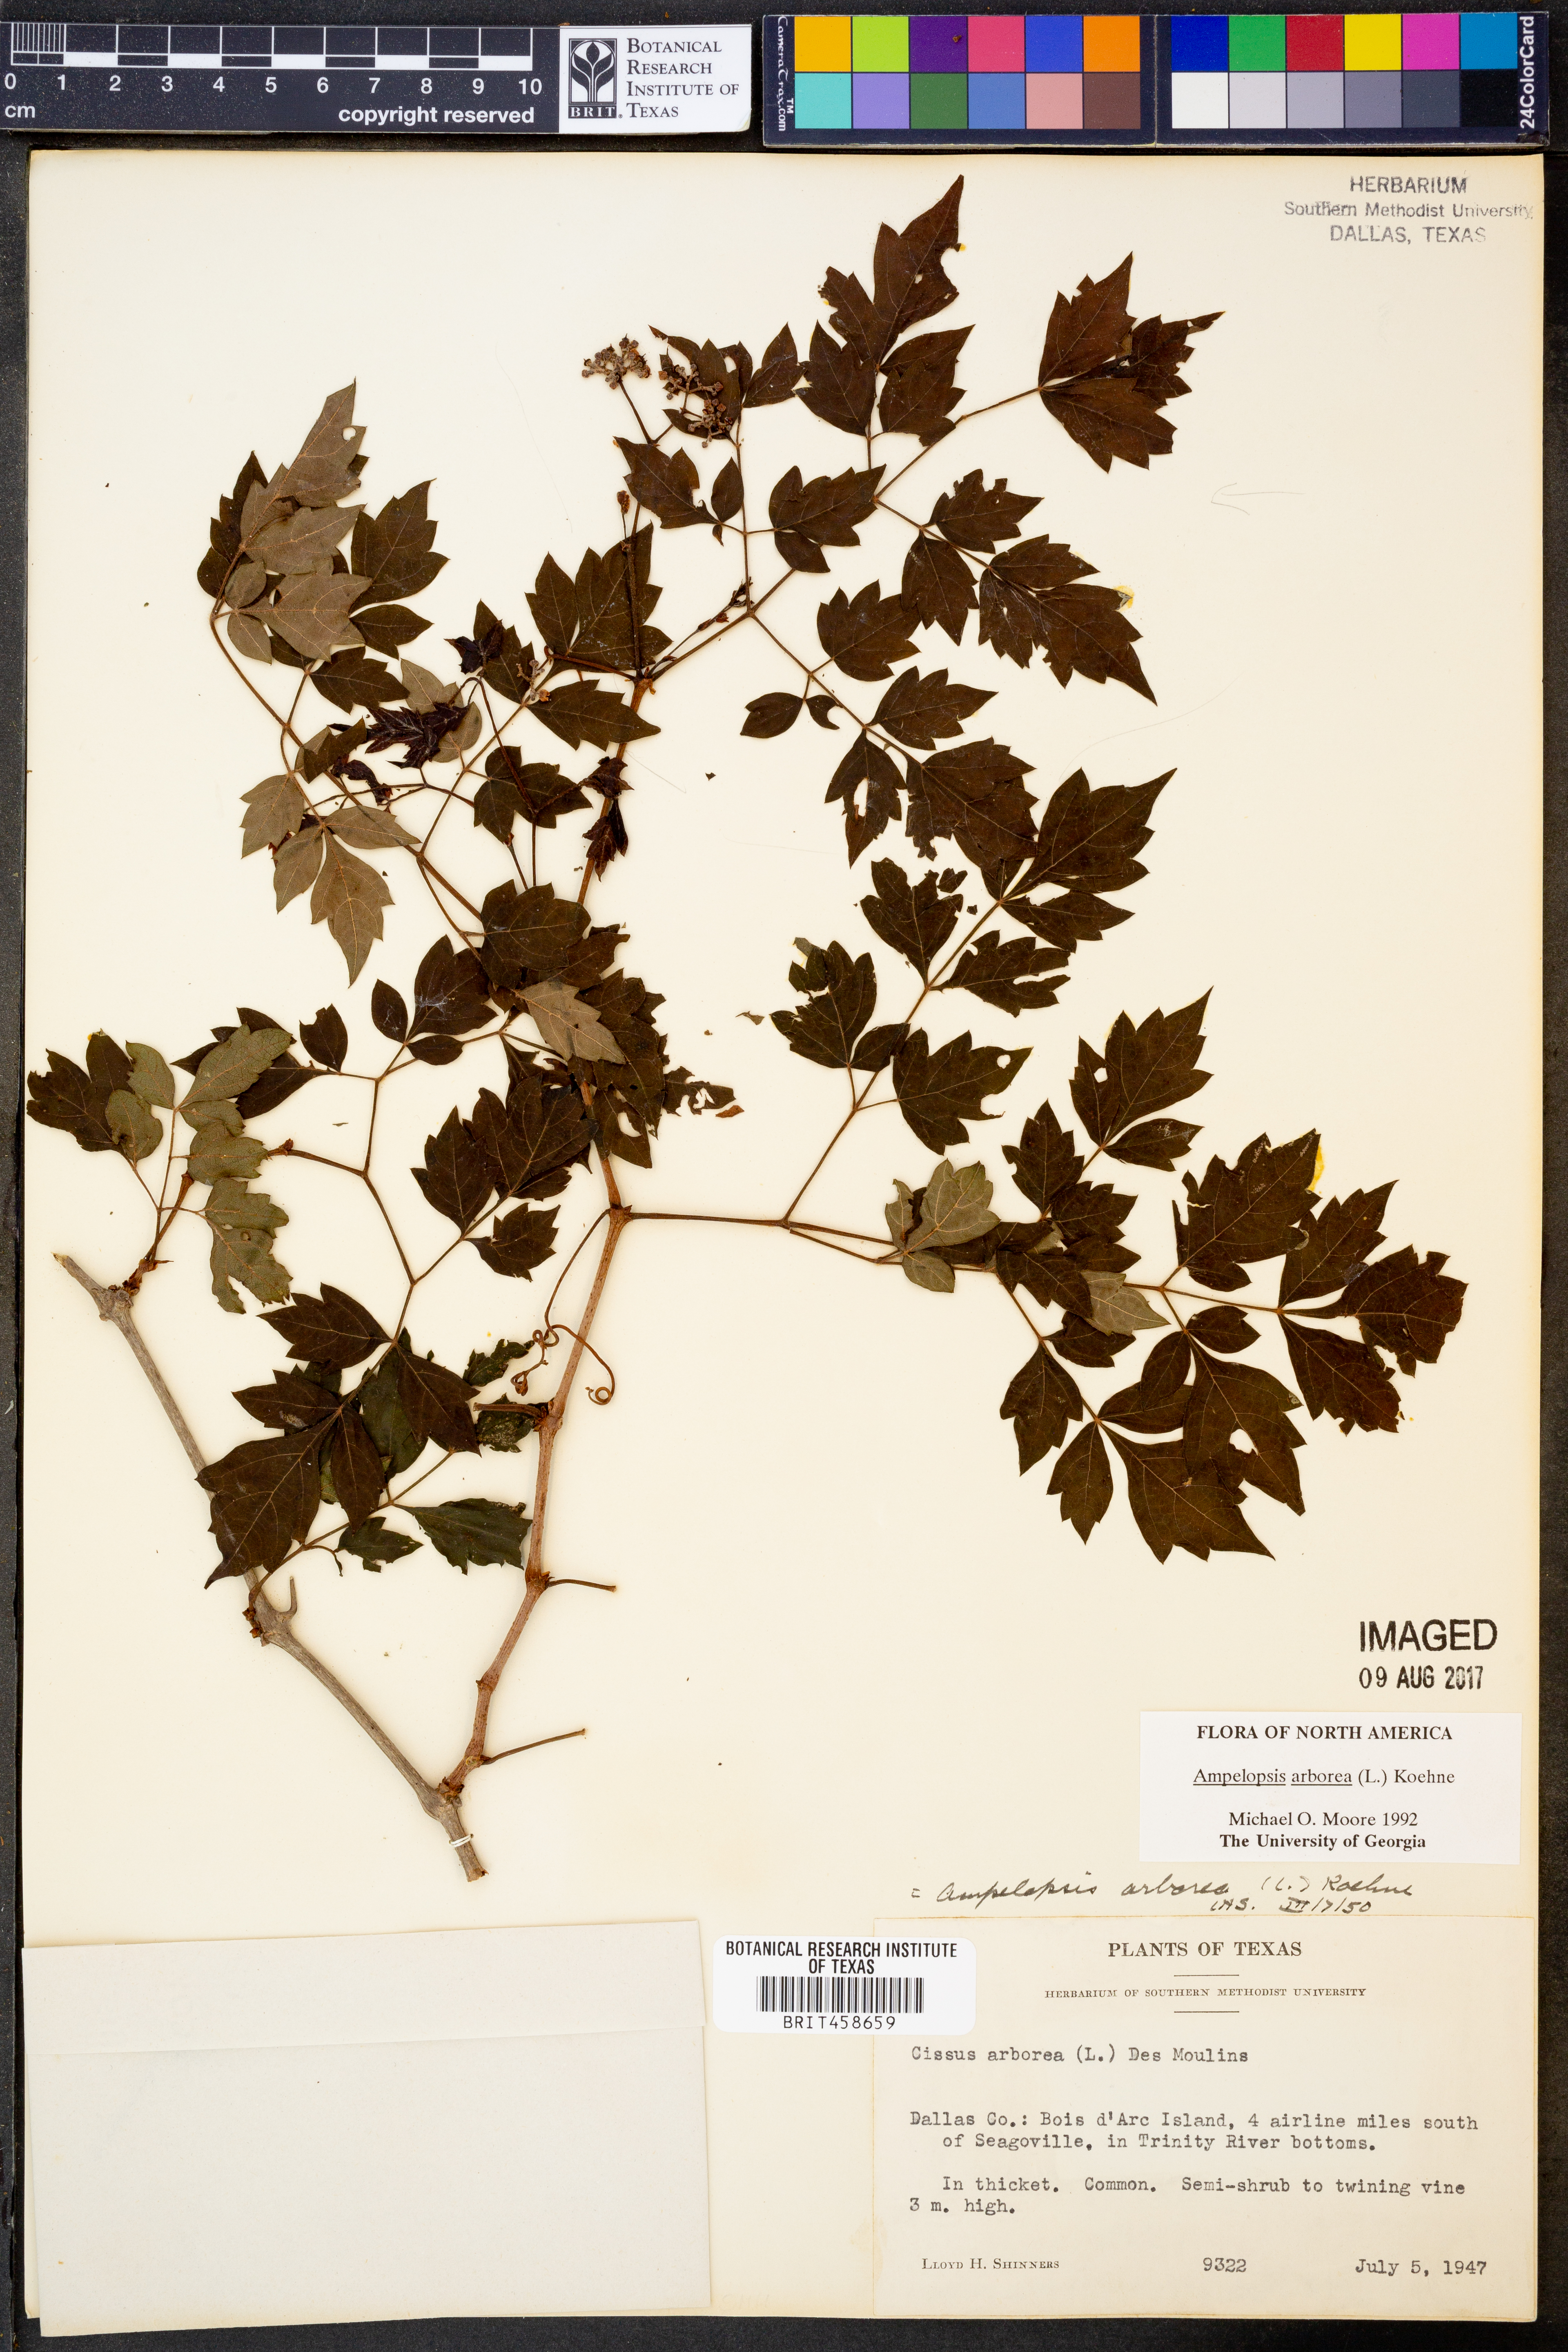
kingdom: Plantae
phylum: Tracheophyta
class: Magnoliopsida
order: Vitales
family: Vitaceae
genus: Nekemias
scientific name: Nekemias arborea
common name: Peppervine
